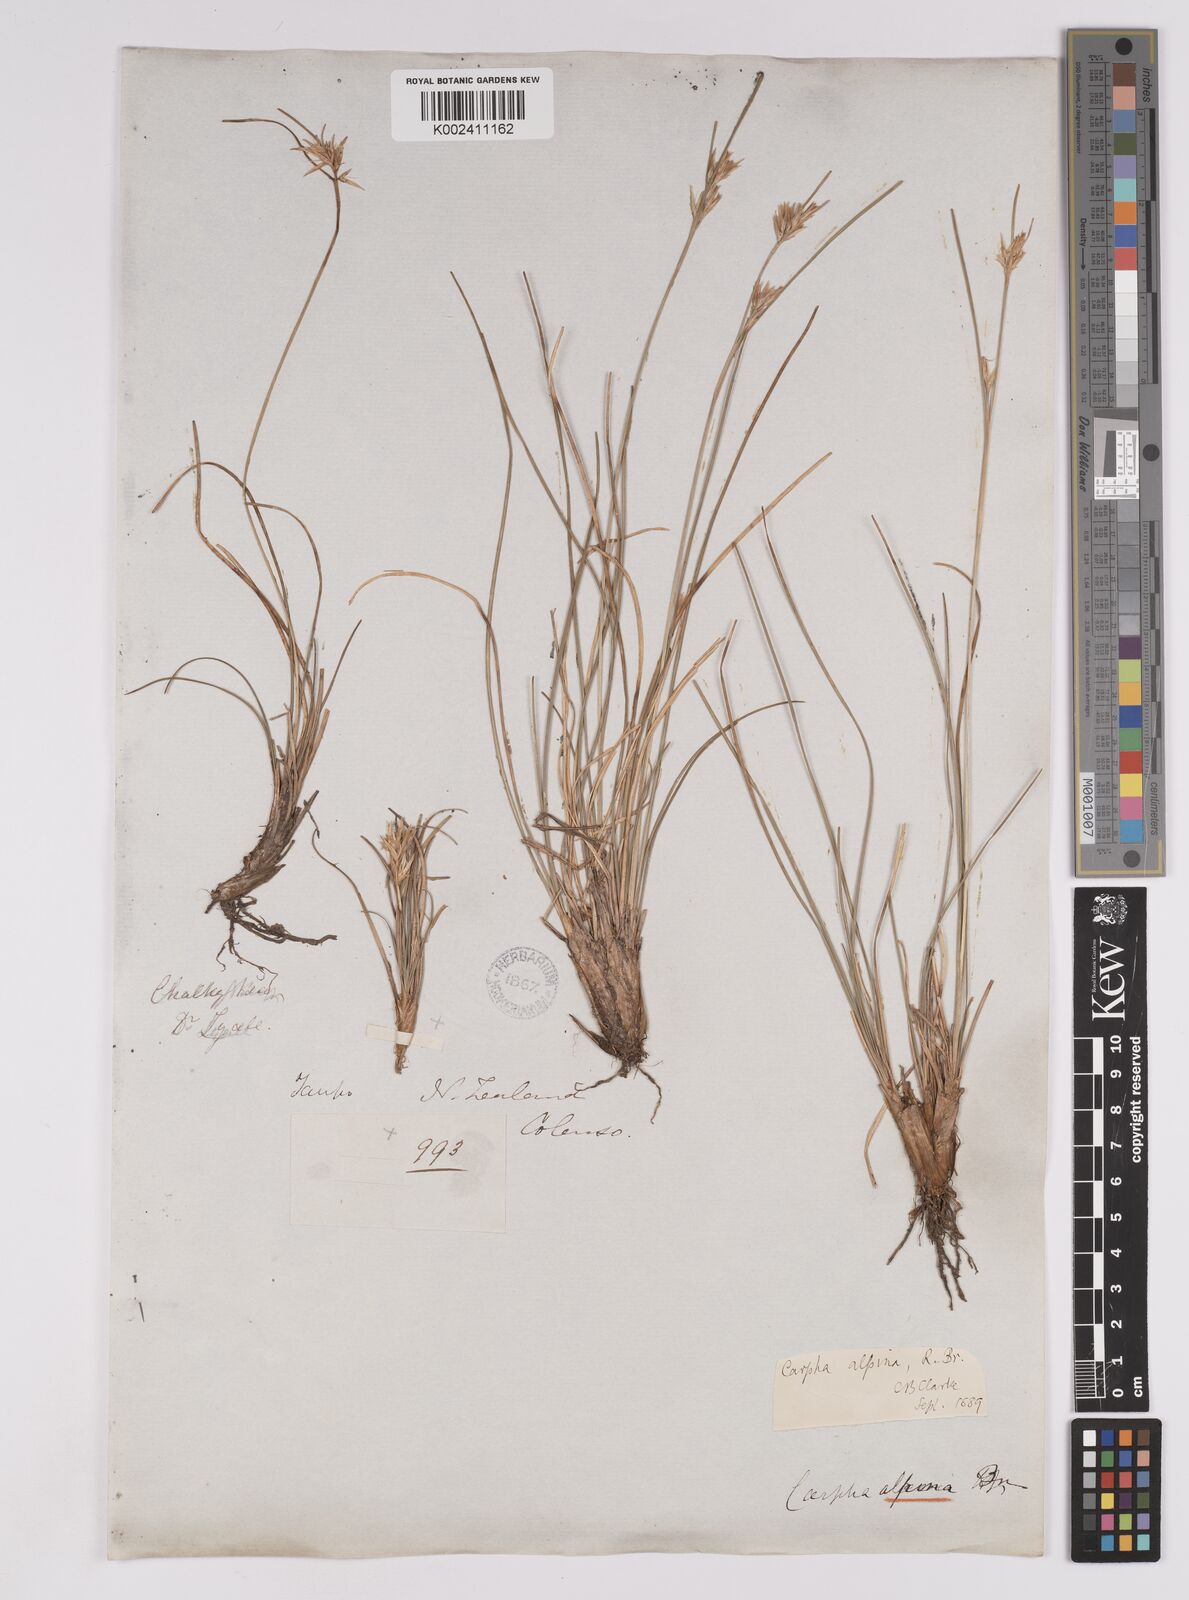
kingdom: Plantae
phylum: Tracheophyta
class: Liliopsida
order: Poales
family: Cyperaceae
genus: Carpha
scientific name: Carpha alpina
